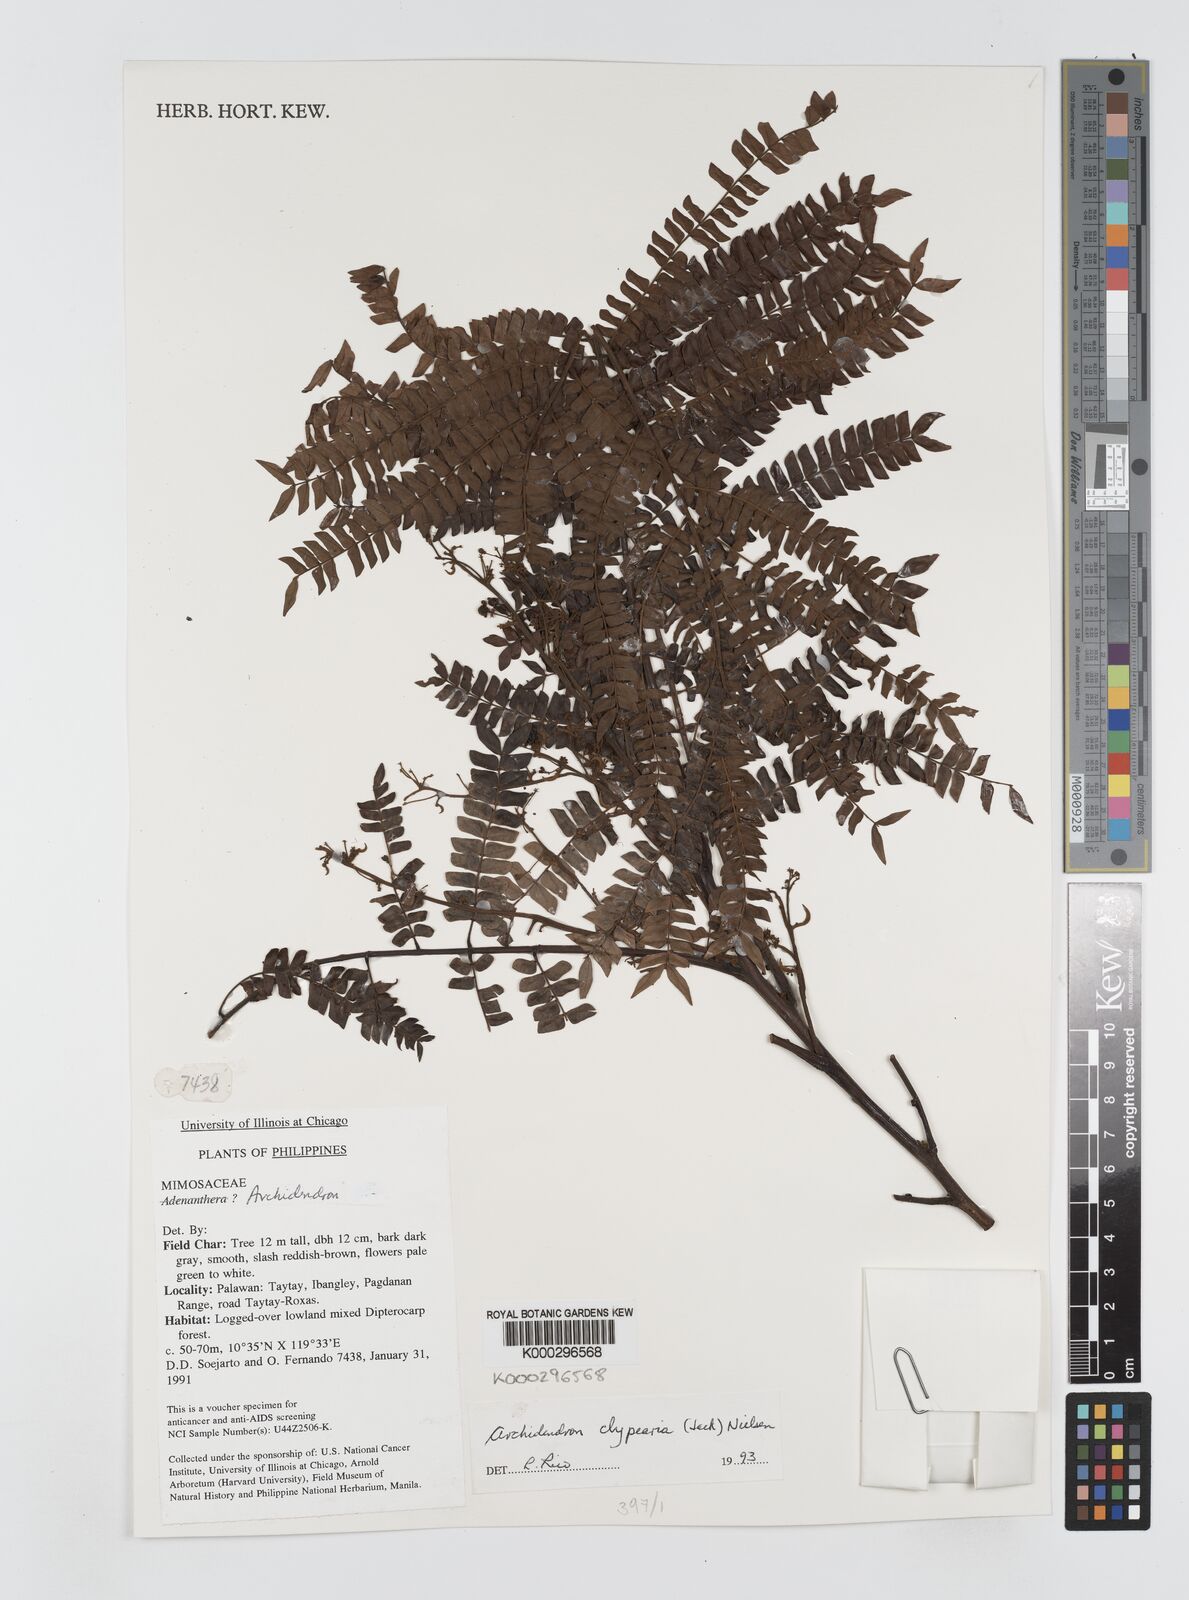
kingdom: Plantae
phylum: Tracheophyta
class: Magnoliopsida
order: Fabales
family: Fabaceae
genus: Archidendron
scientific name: Archidendron clypearia
